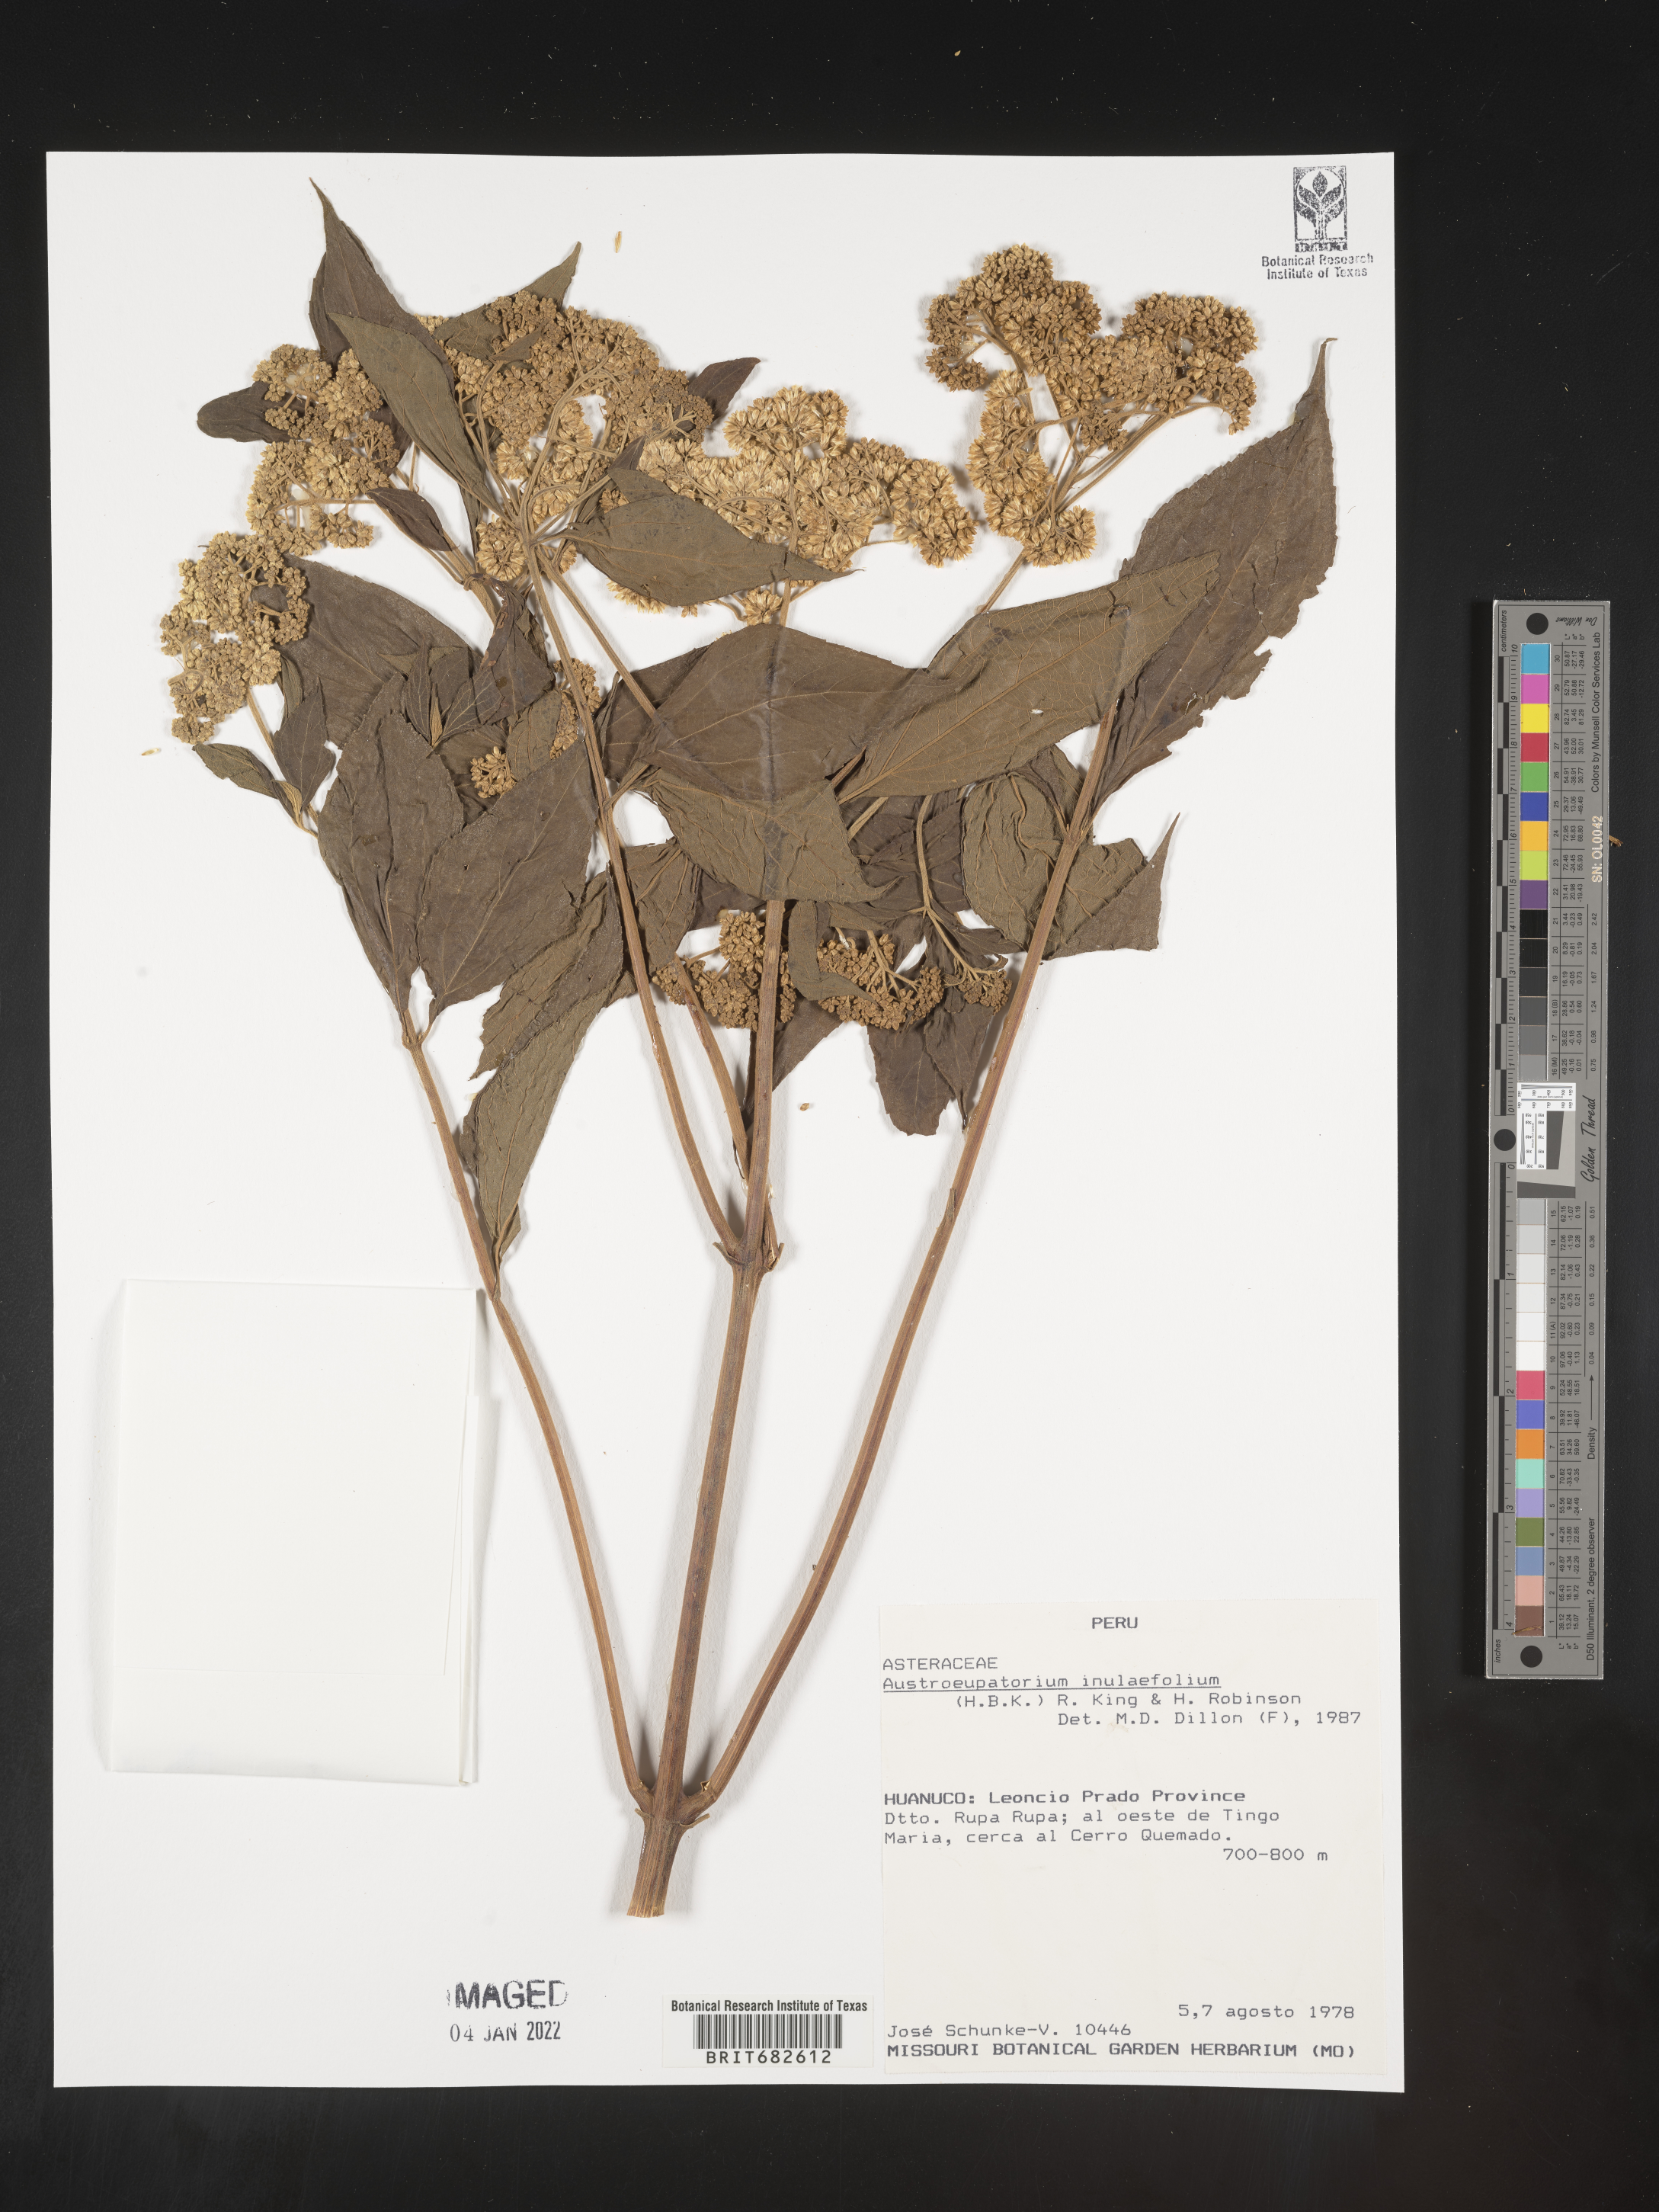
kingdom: Plantae
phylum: Tracheophyta
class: Magnoliopsida
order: Asterales
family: Asteraceae
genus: Austroeupatorium
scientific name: Austroeupatorium
